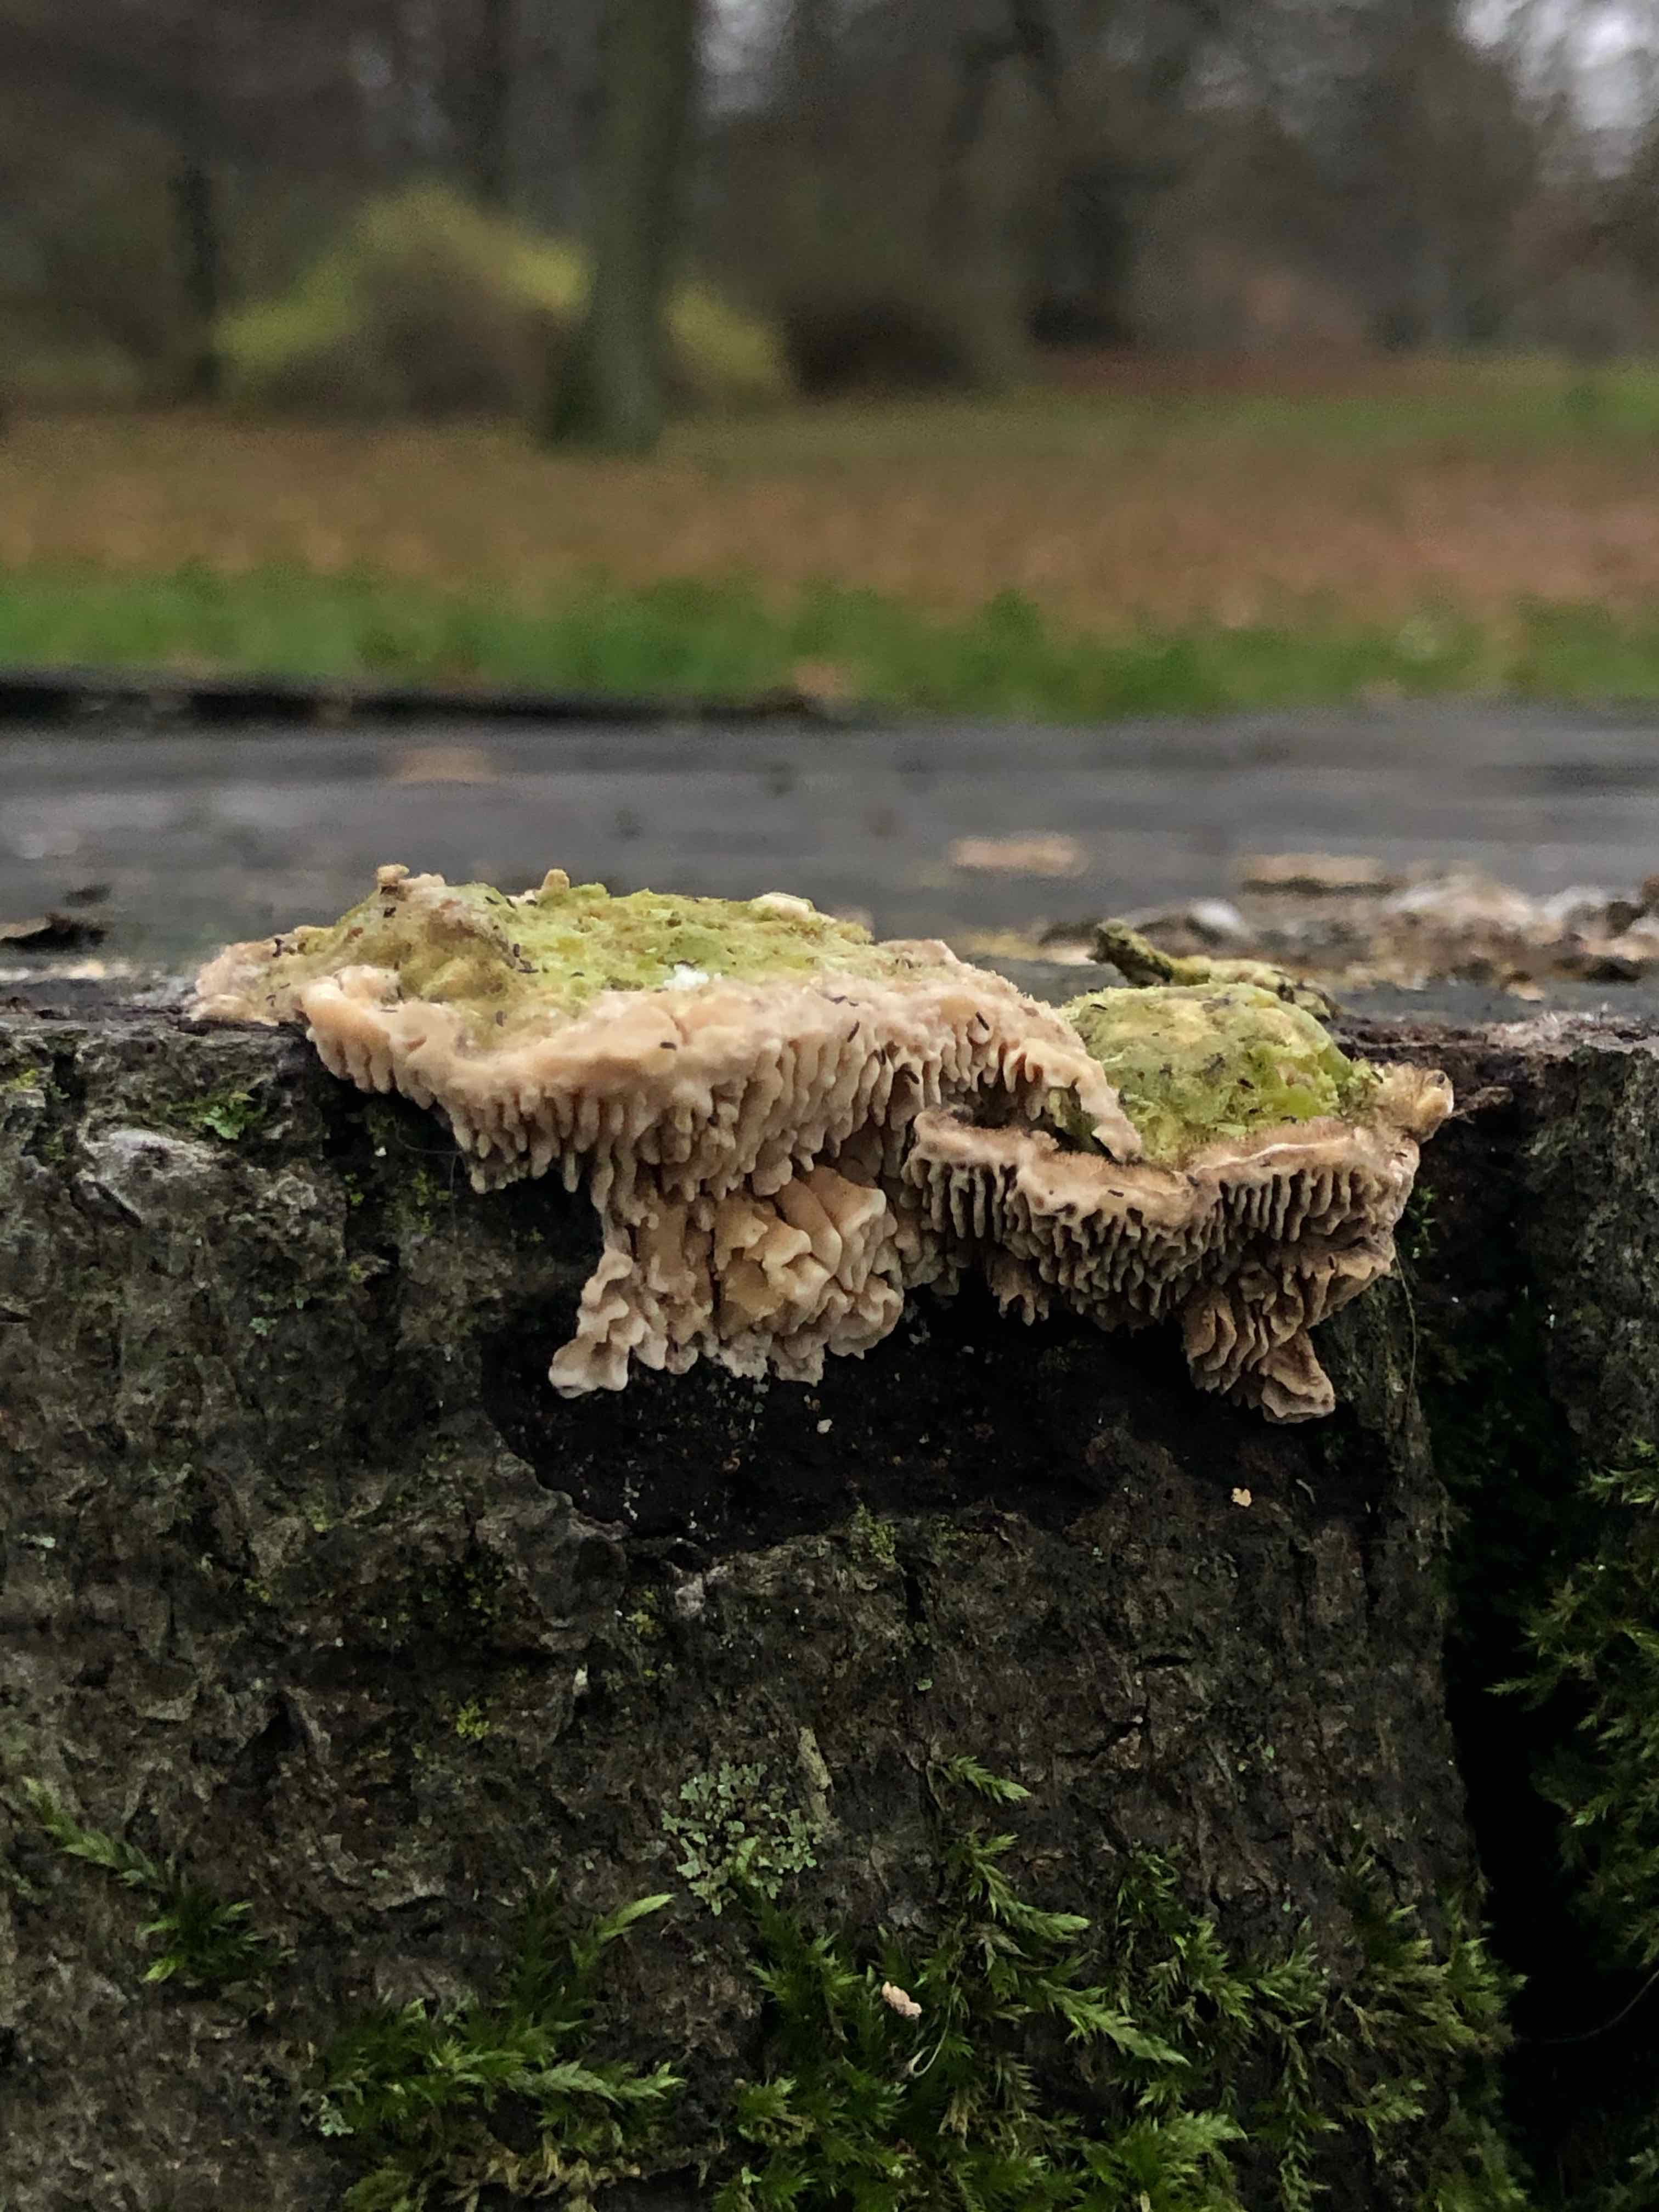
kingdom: Fungi
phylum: Basidiomycota
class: Agaricomycetes
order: Polyporales
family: Polyporaceae
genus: Lenzites
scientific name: Lenzites betulinus
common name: birke-læderporesvamp
